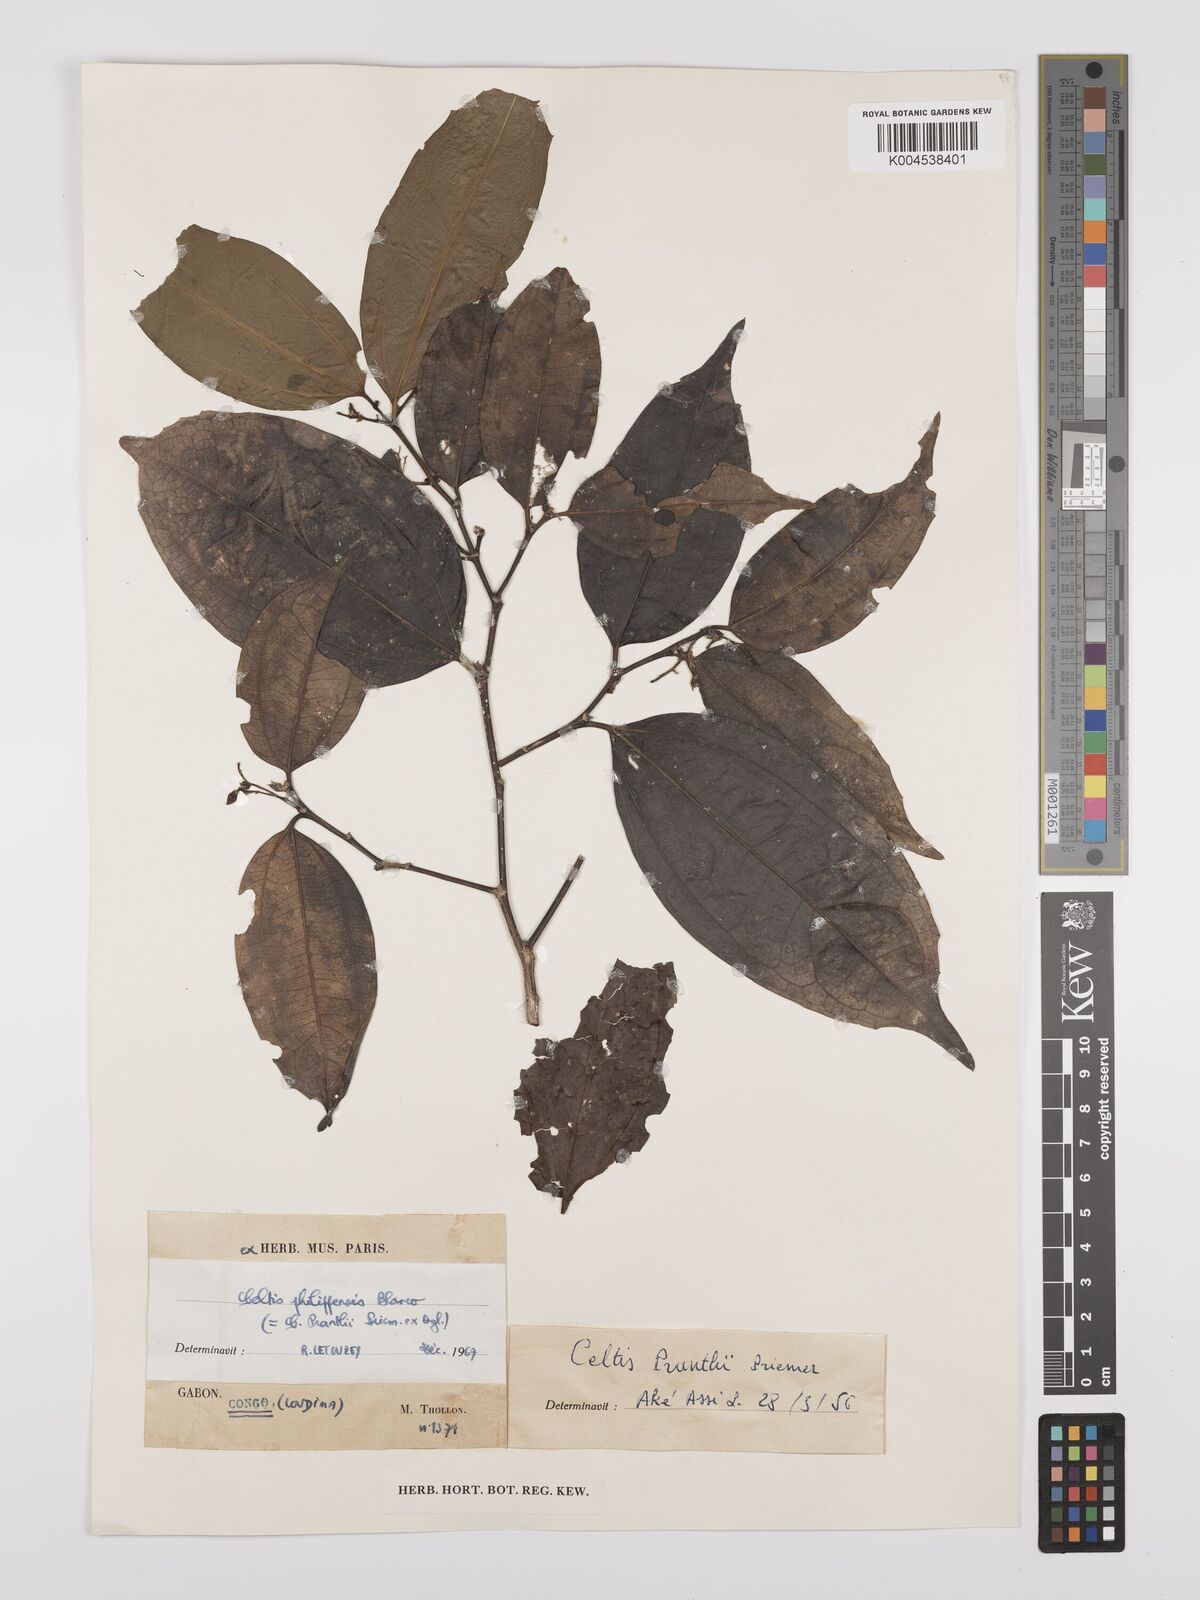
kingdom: Plantae
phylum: Tracheophyta
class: Magnoliopsida
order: Rosales
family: Cannabaceae
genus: Celtis
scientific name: Celtis philippensis
